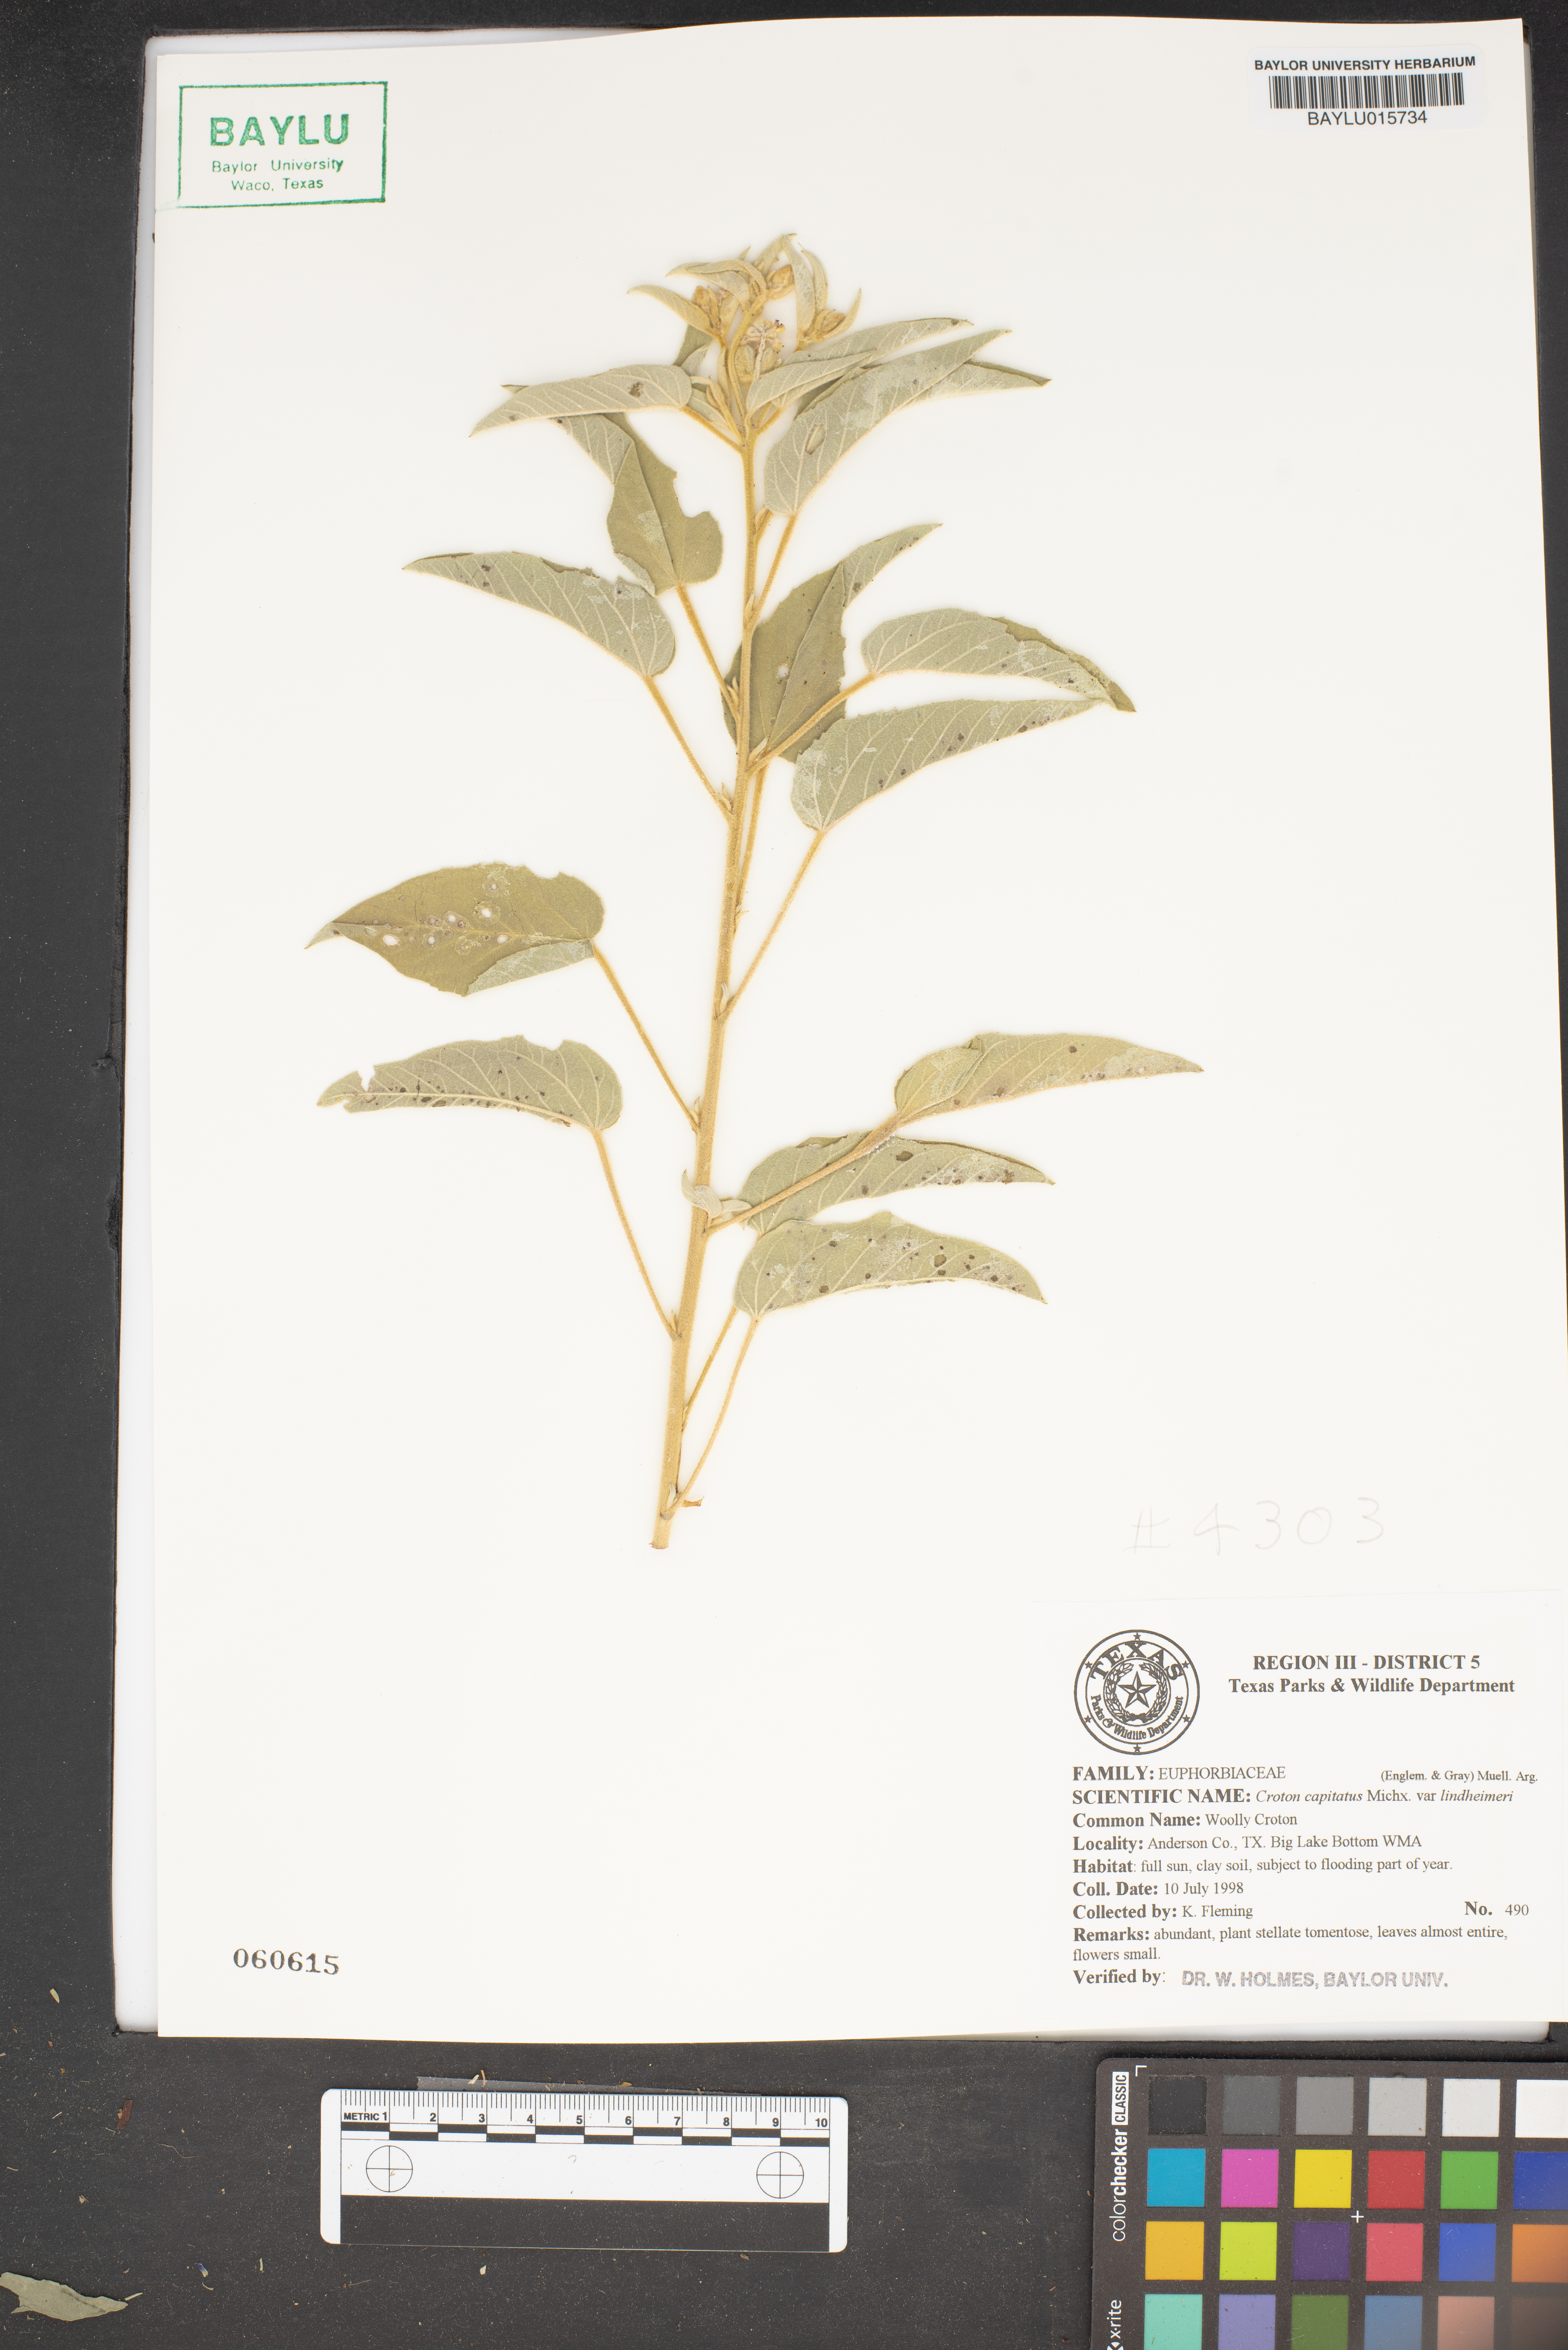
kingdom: Plantae
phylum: Tracheophyta
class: Magnoliopsida
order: Malpighiales
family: Euphorbiaceae
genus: Croton
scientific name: Croton capitatus
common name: Woolly croton
